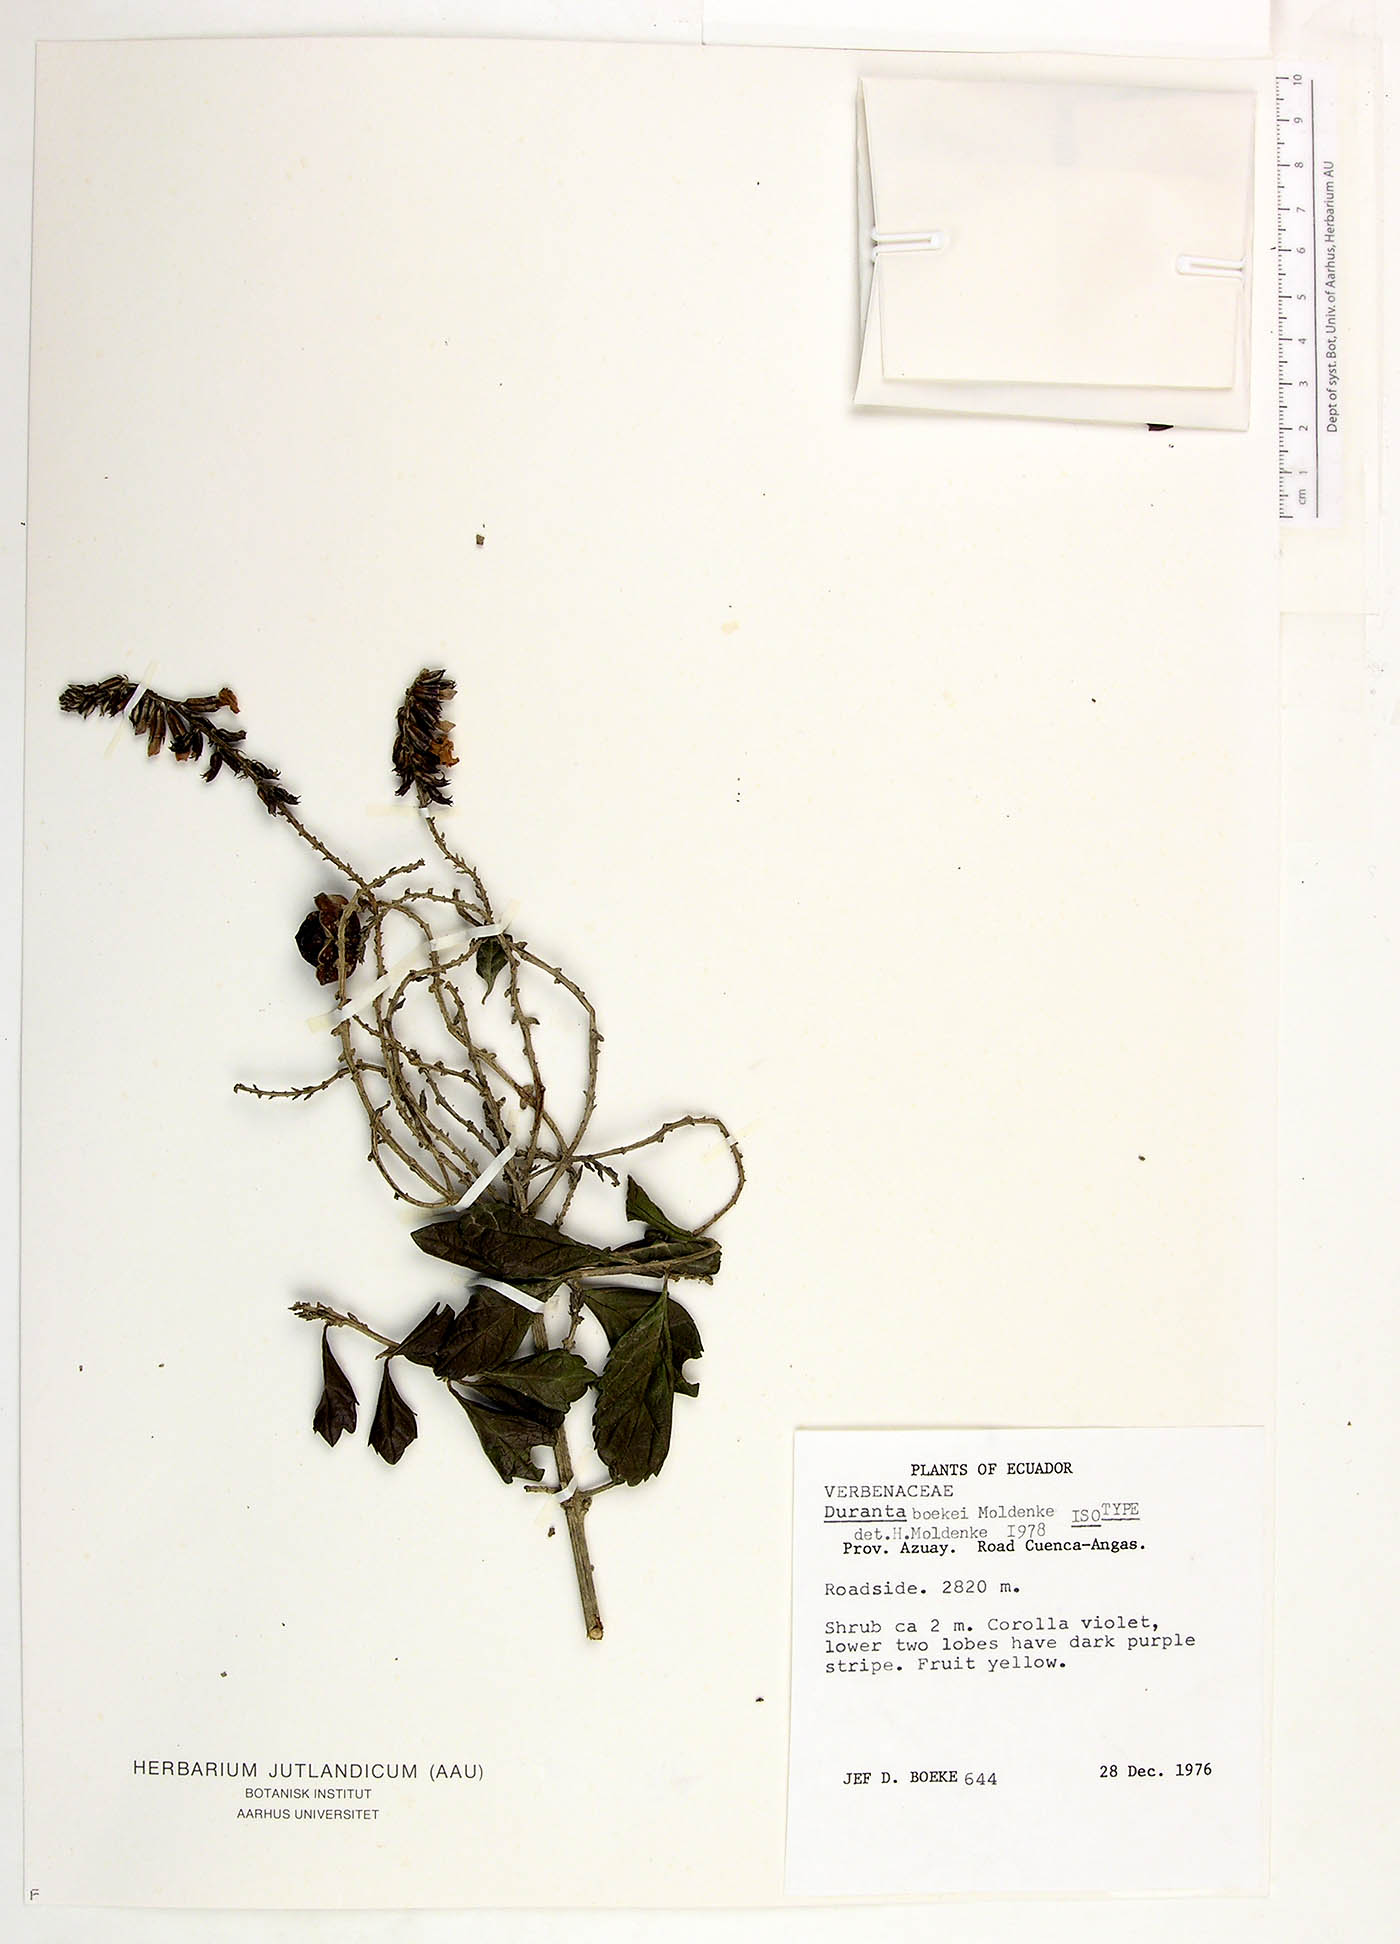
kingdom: Plantae
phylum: Tracheophyta
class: Magnoliopsida
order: Lamiales
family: Verbenaceae
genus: Duranta
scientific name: Duranta penlandii
